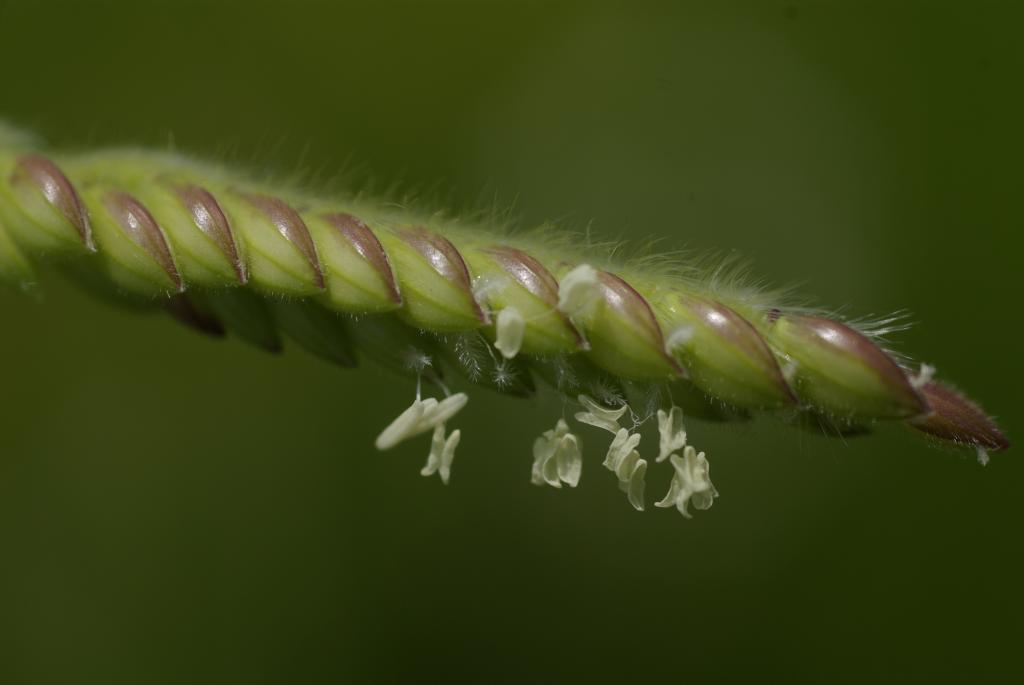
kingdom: Plantae
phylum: Tracheophyta
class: Liliopsida
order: Poales
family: Poaceae
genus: Eriochloa
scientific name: Eriochloa villosa
